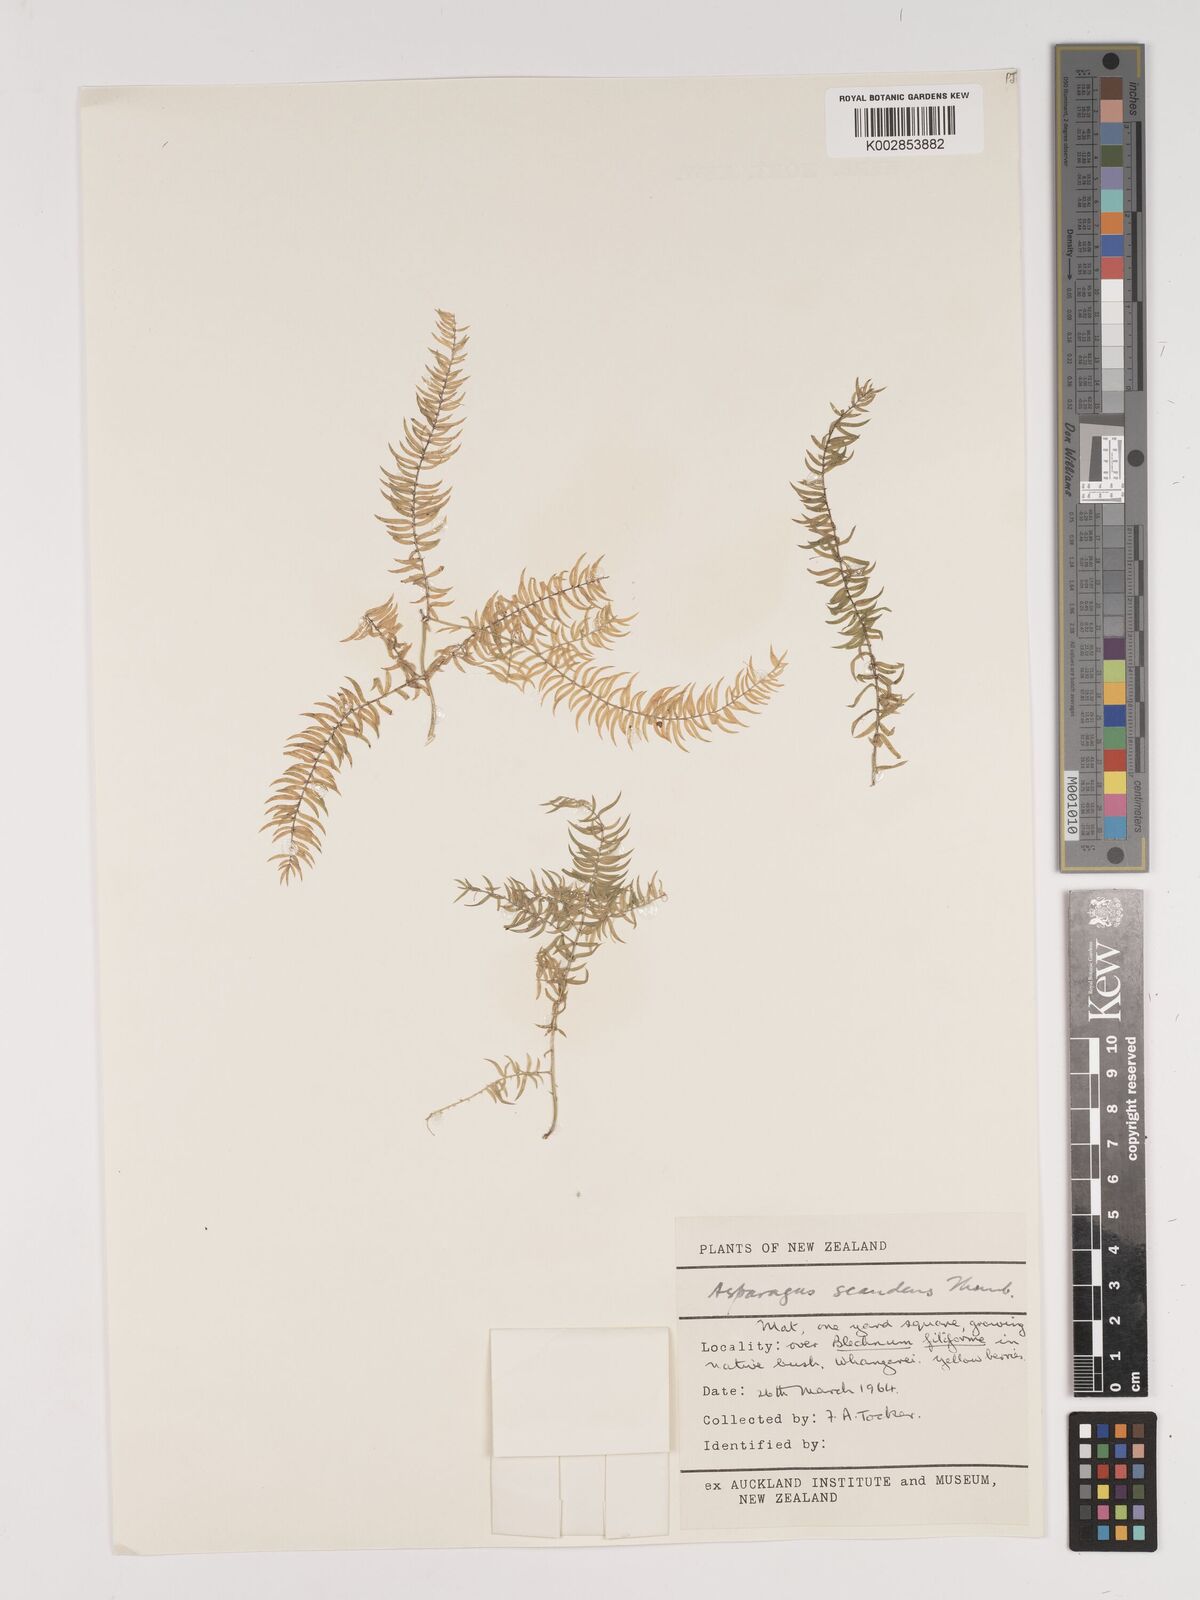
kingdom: Plantae
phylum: Tracheophyta
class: Liliopsida
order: Asparagales
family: Asparagaceae
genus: Asparagus
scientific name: Asparagus scandens
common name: Asparagus-fern
